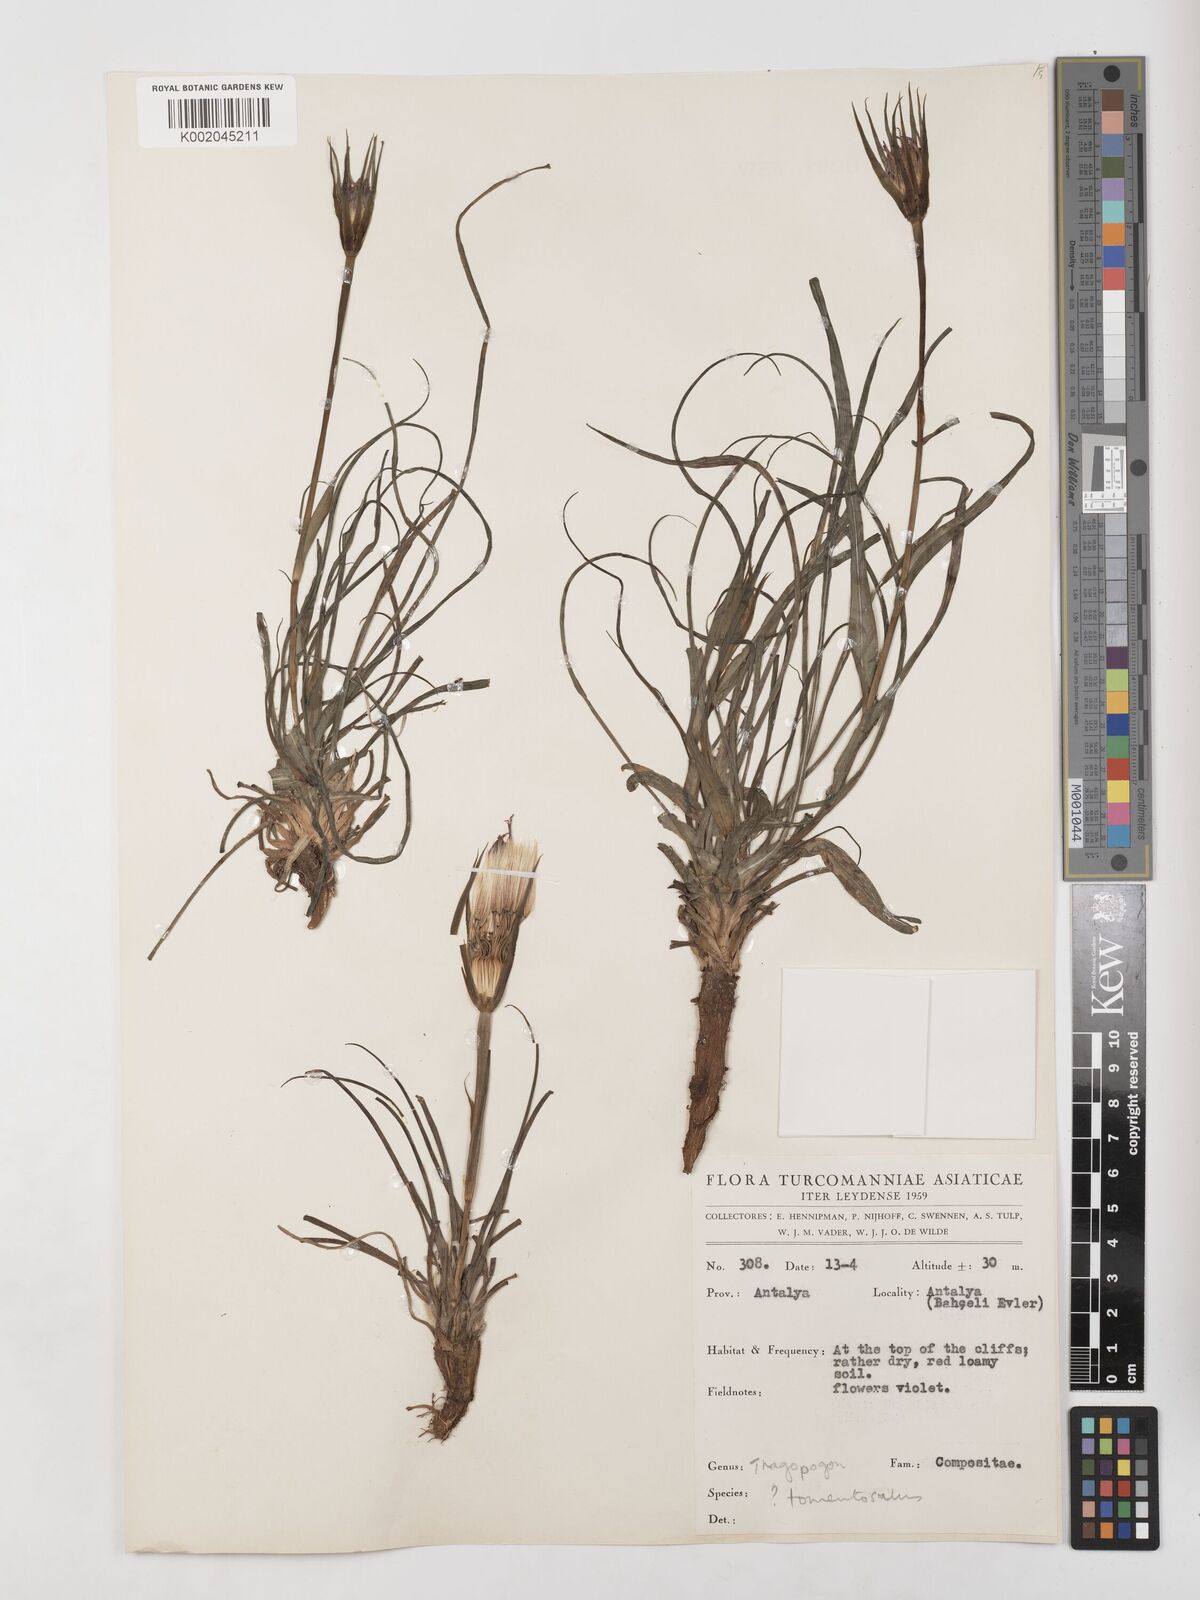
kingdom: Plantae
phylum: Tracheophyta
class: Magnoliopsida
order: Asterales
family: Asteraceae
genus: Tragopogon
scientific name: Tragopogon coelesyriacus
